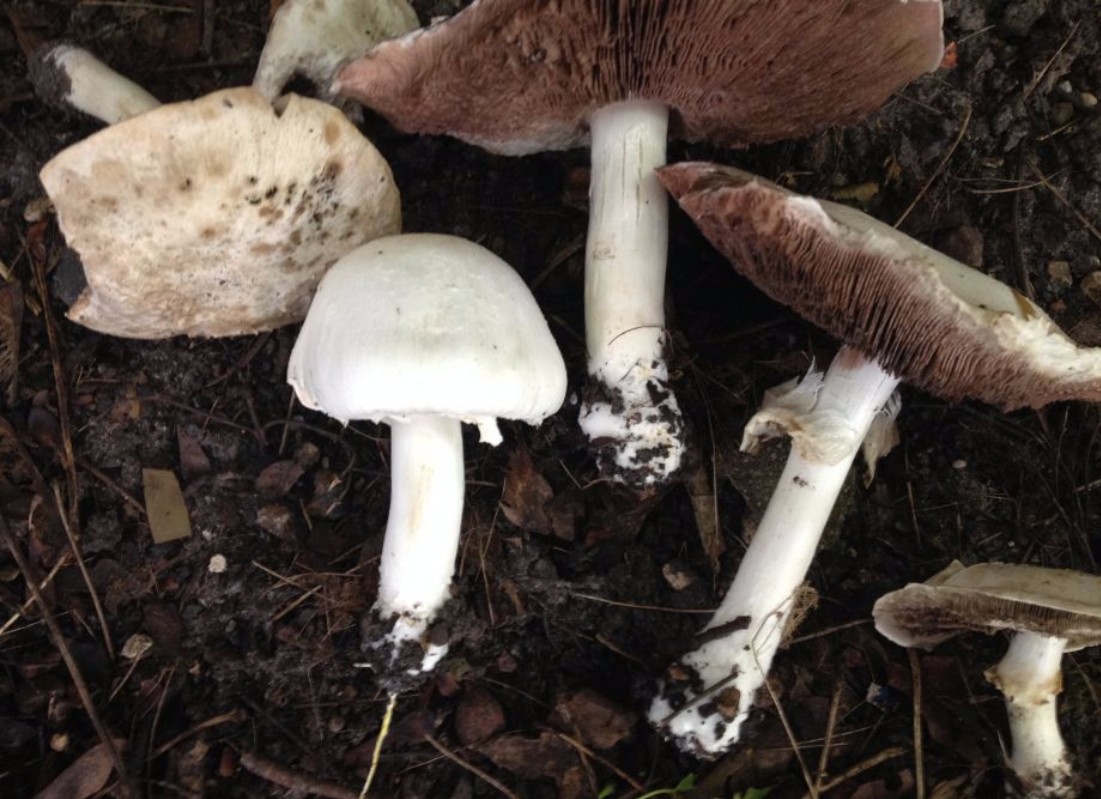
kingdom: Fungi
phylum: Basidiomycota
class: Agaricomycetes
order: Agaricales
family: Agaricaceae
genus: Agaricus
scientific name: Agaricus xanthodermus
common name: karbol-champignon
